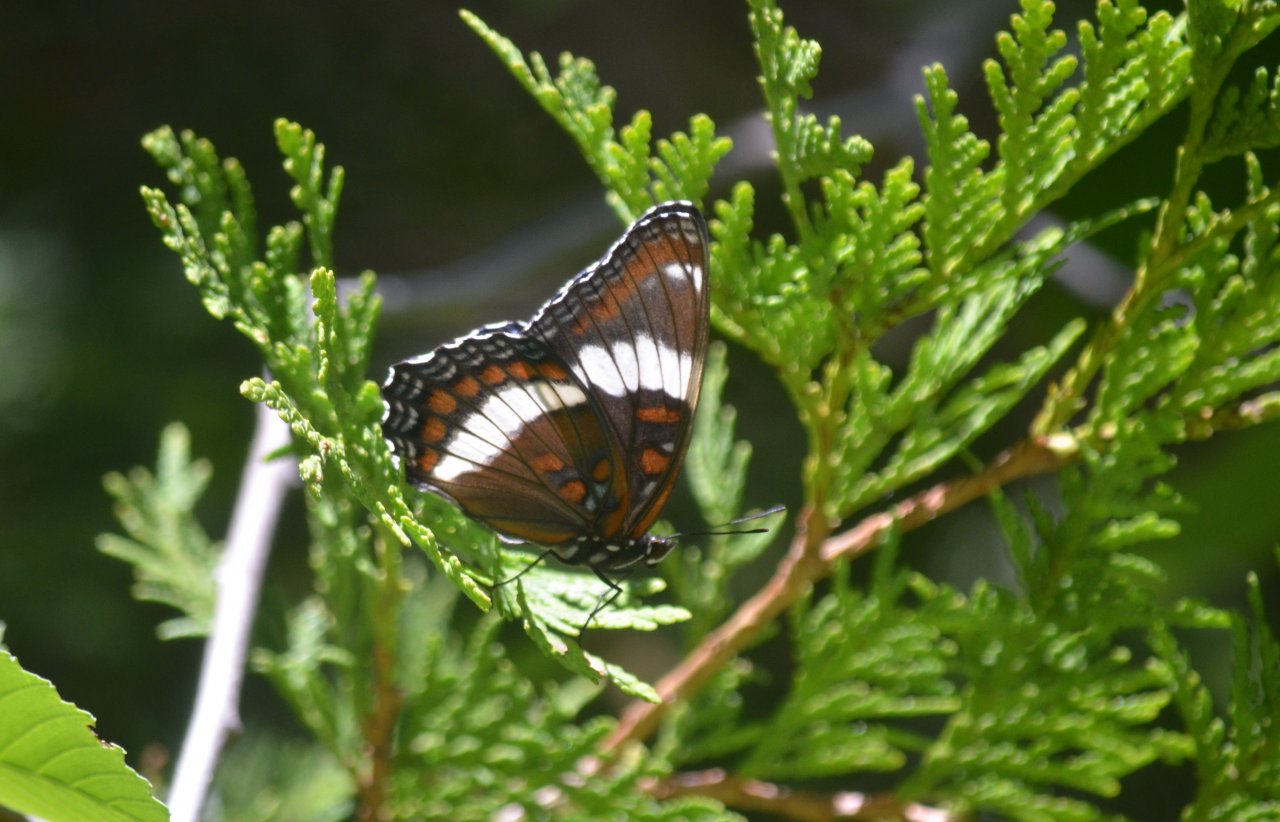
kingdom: Animalia
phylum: Arthropoda
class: Insecta
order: Lepidoptera
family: Nymphalidae
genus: Limenitis
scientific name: Limenitis arthemis
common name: Red-spotted Admiral
